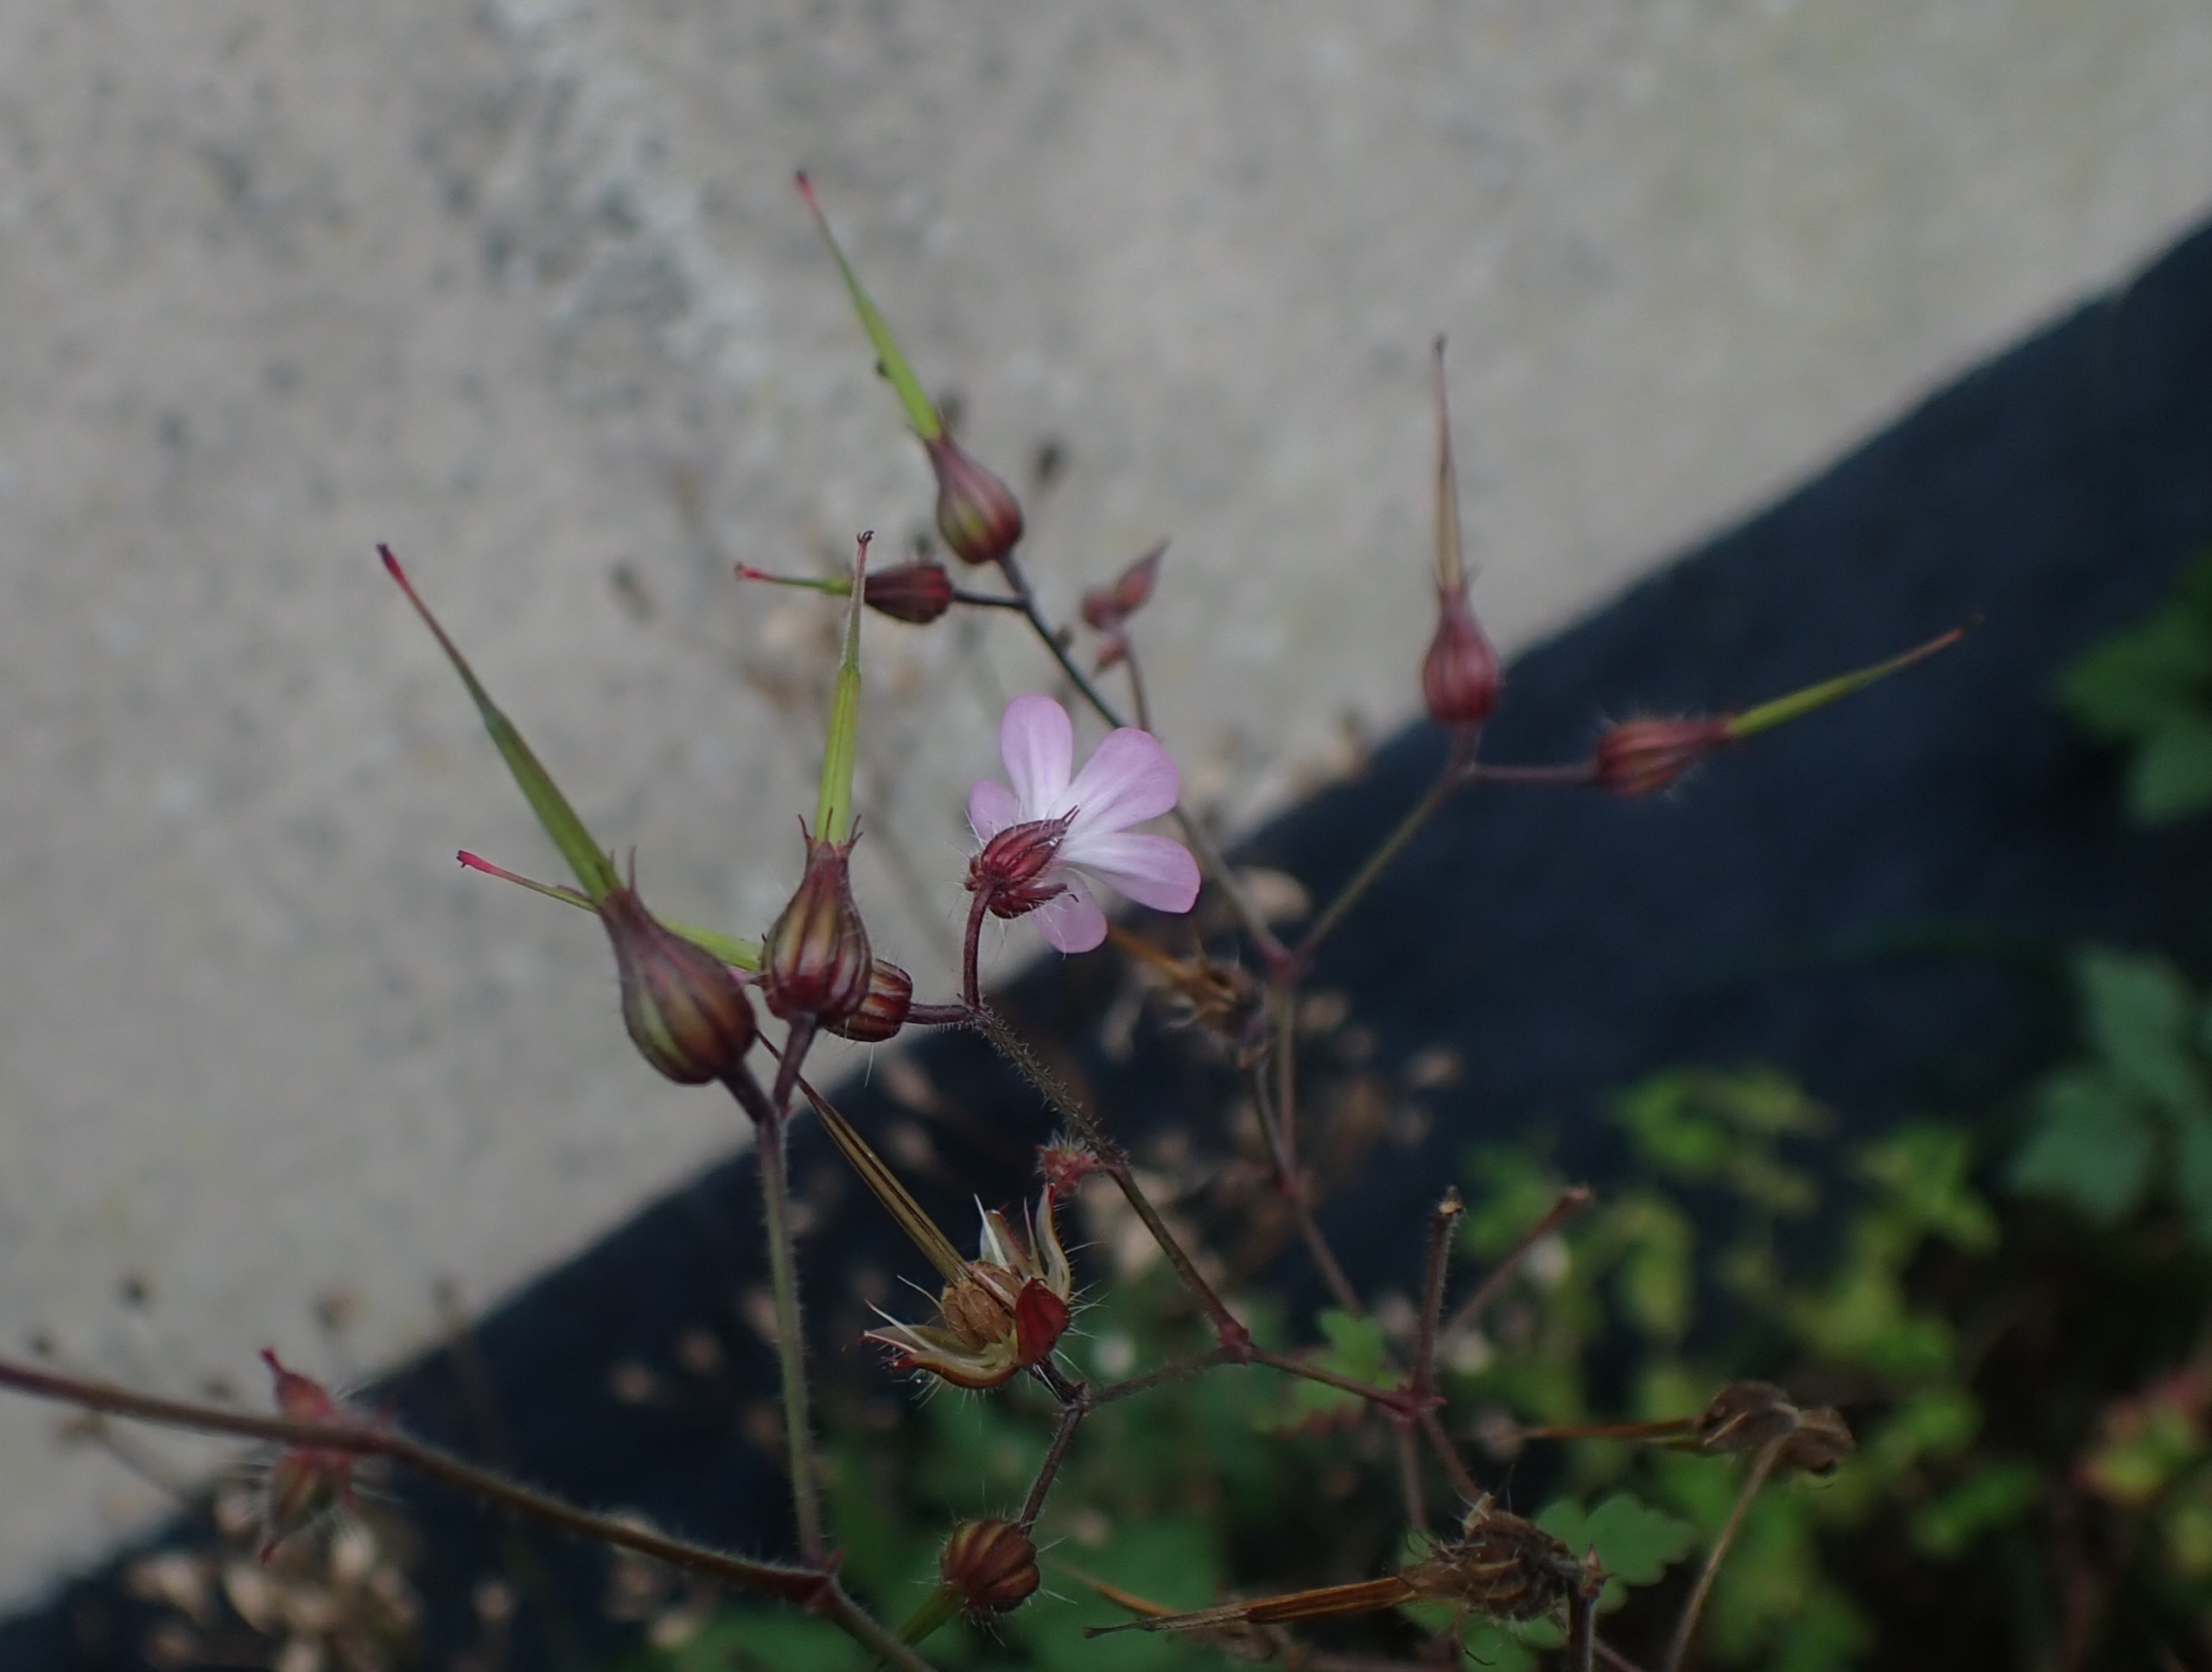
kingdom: Plantae
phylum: Tracheophyta
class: Magnoliopsida
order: Geraniales
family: Geraniaceae
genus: Geranium
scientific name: Geranium robertianum
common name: Stinkende storkenæb
